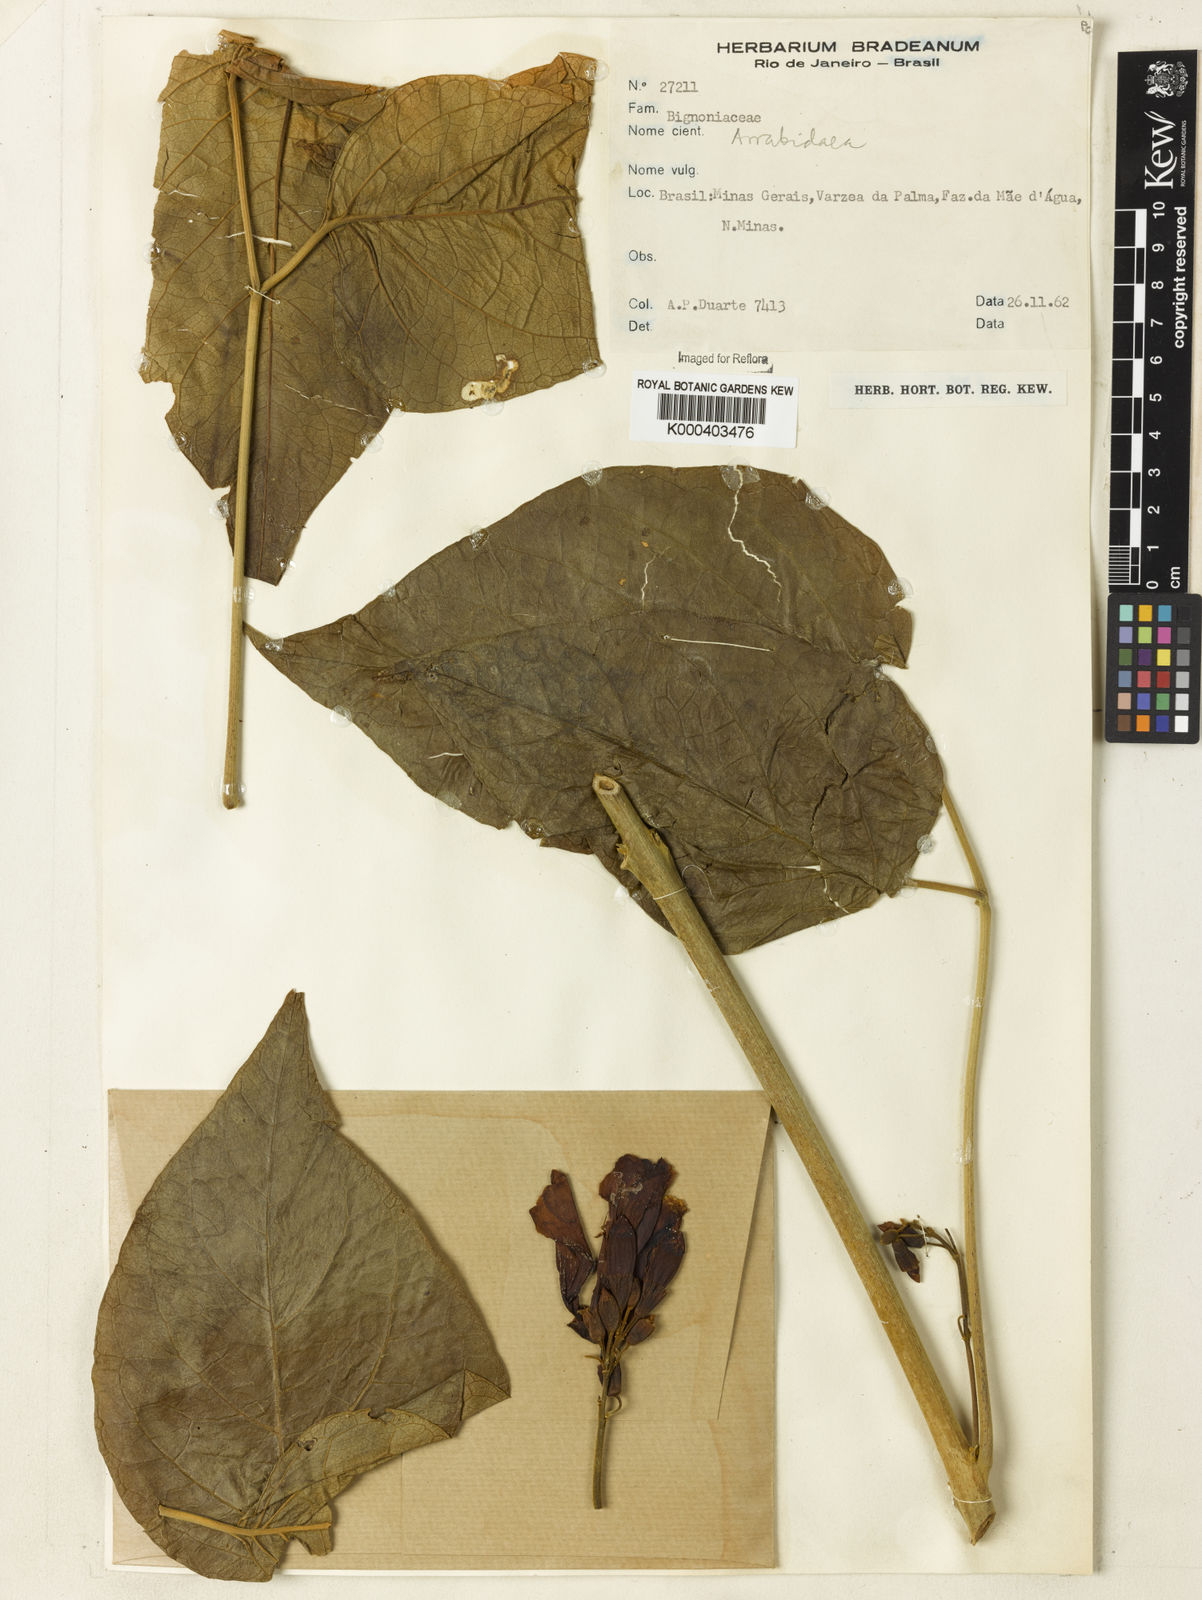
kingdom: Plantae
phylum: Tracheophyta
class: Magnoliopsida
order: Rosales
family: Rhamnaceae
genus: Arrabidaea
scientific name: Arrabidaea
